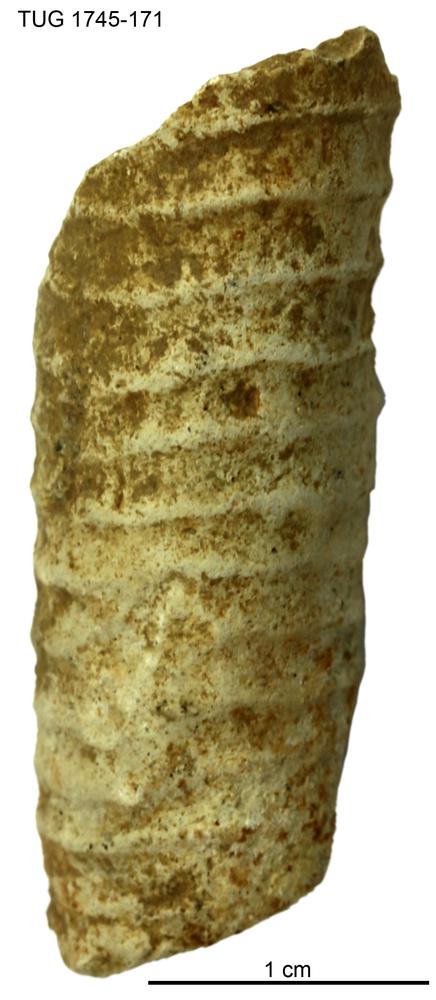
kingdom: Animalia
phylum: Mollusca
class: Cephalopoda
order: Orthocerida
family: Pseudorthoceratidae
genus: Spyroceras
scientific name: Spyroceras
